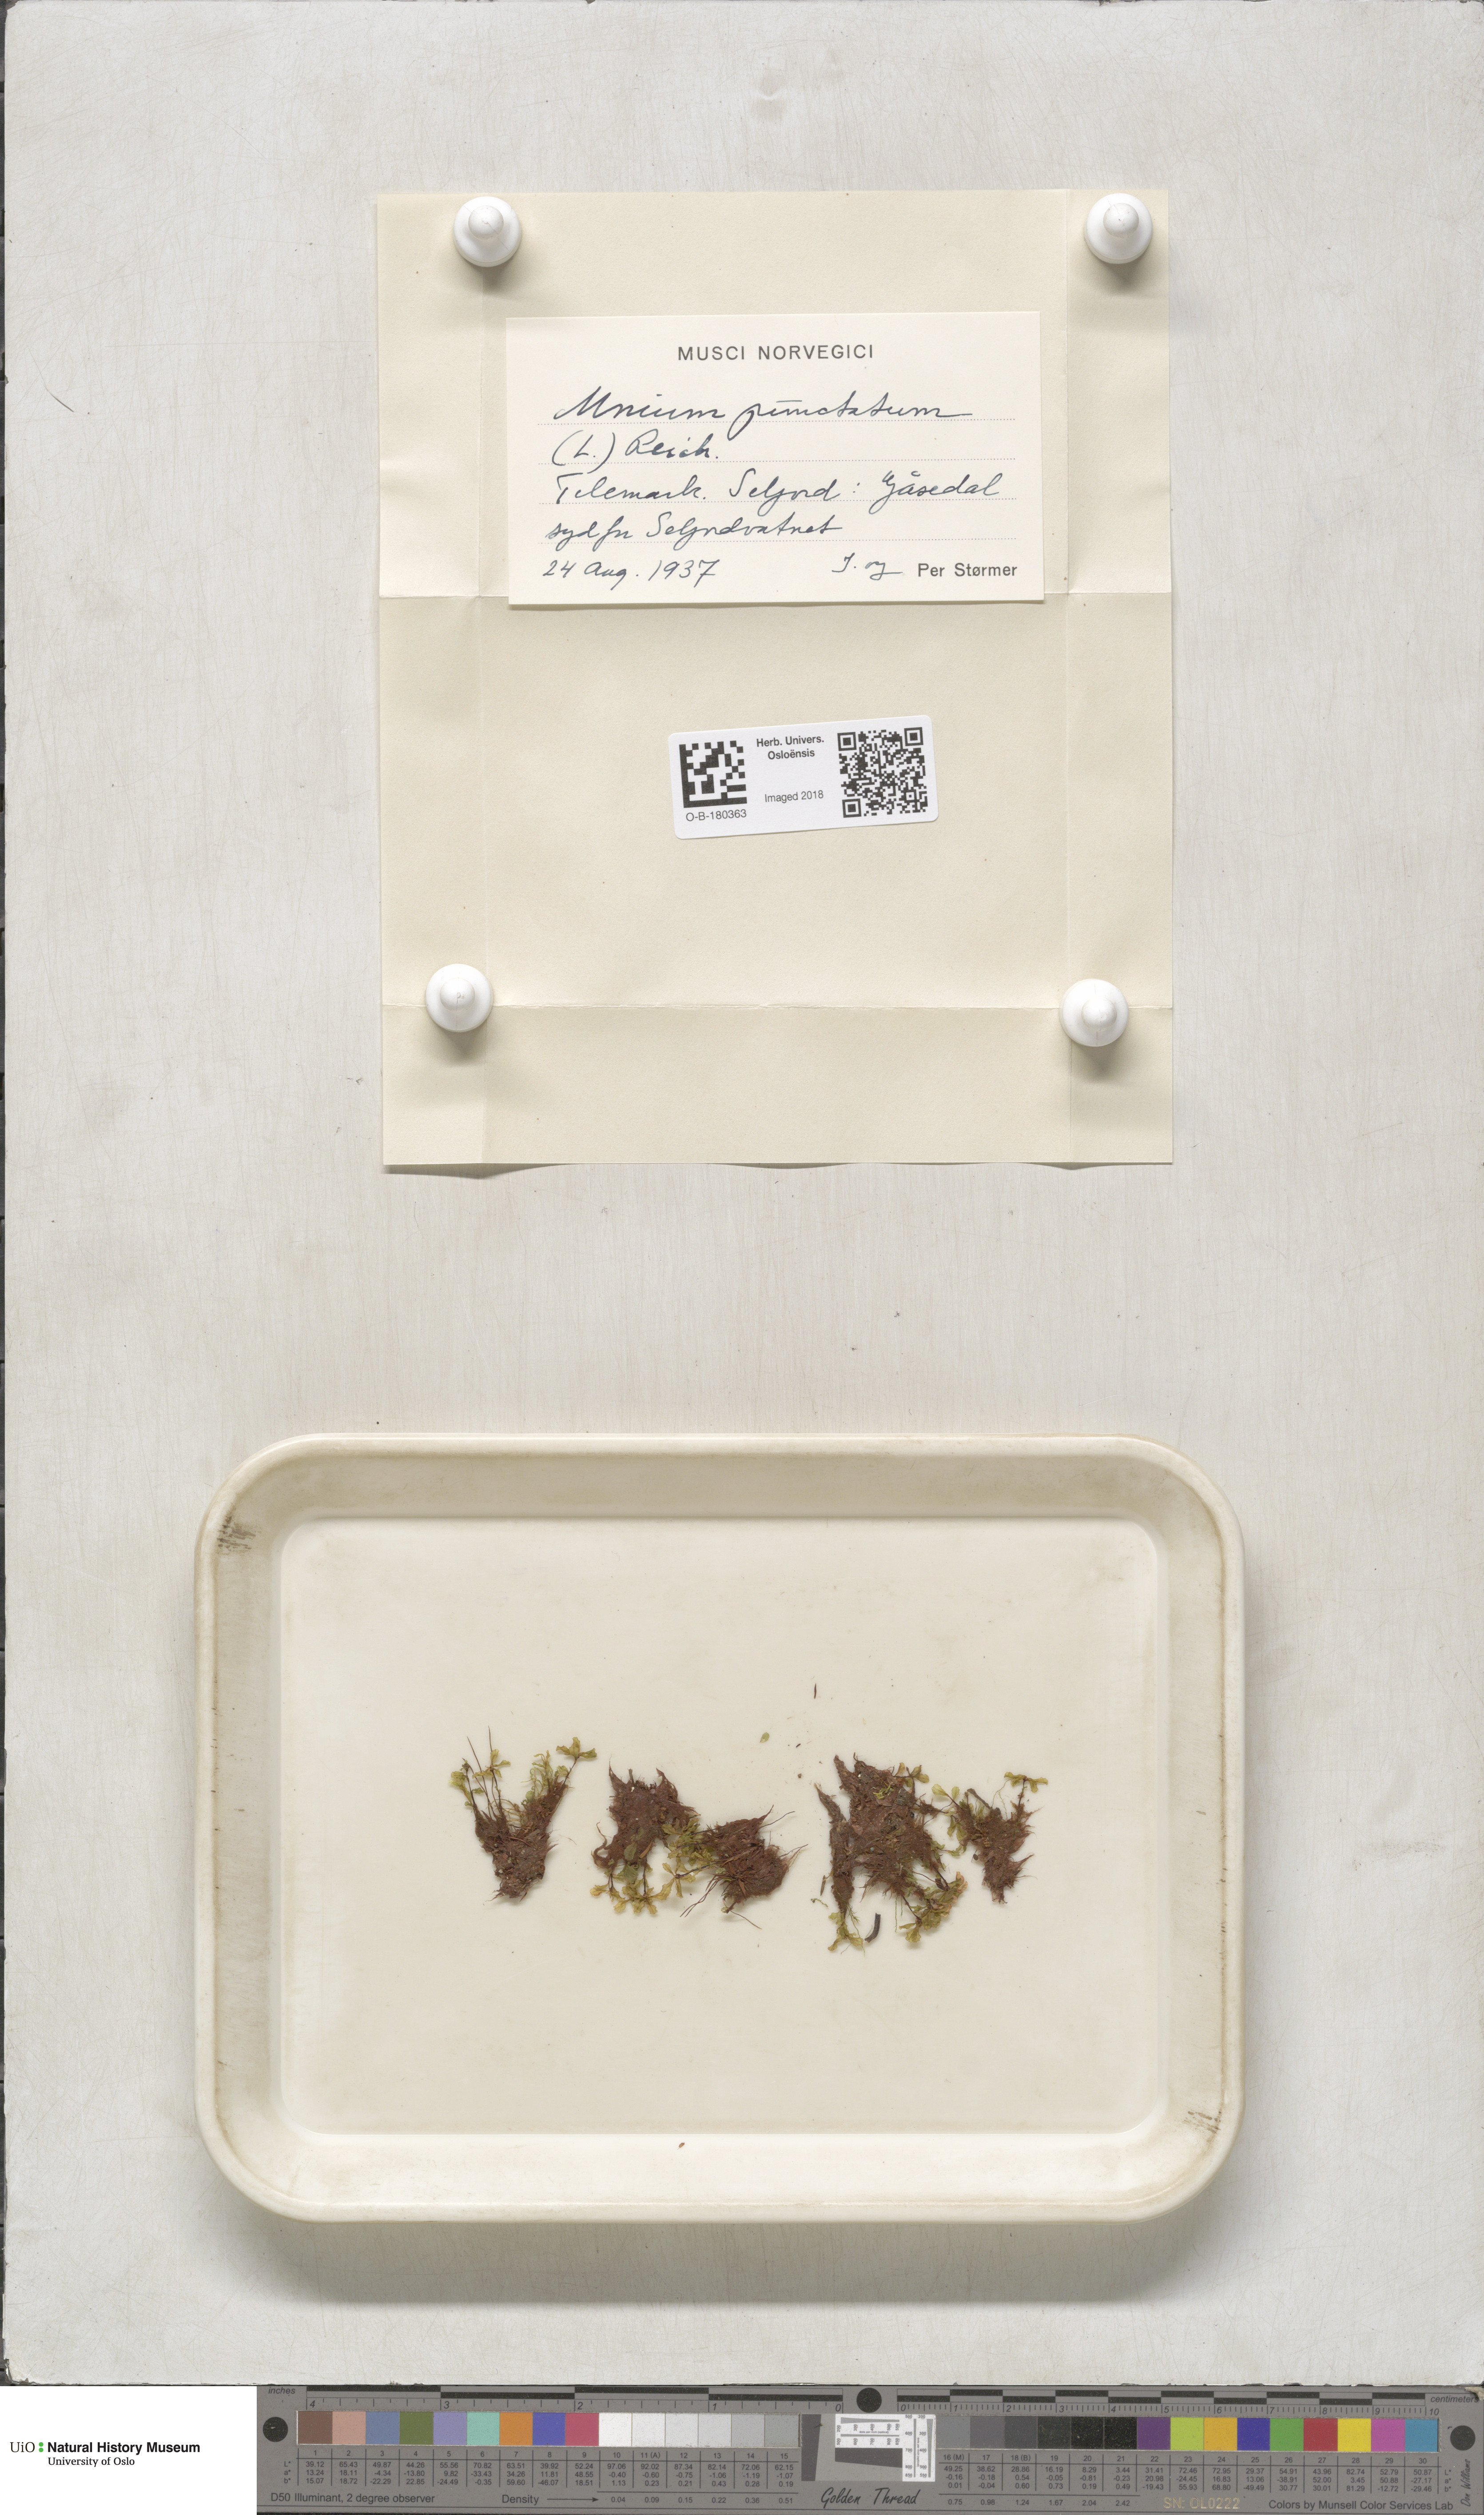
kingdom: Plantae
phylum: Bryophyta
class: Bryopsida
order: Bryales
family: Mniaceae
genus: Rhizomnium
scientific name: Rhizomnium punctatum
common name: Dotted leafy moss
